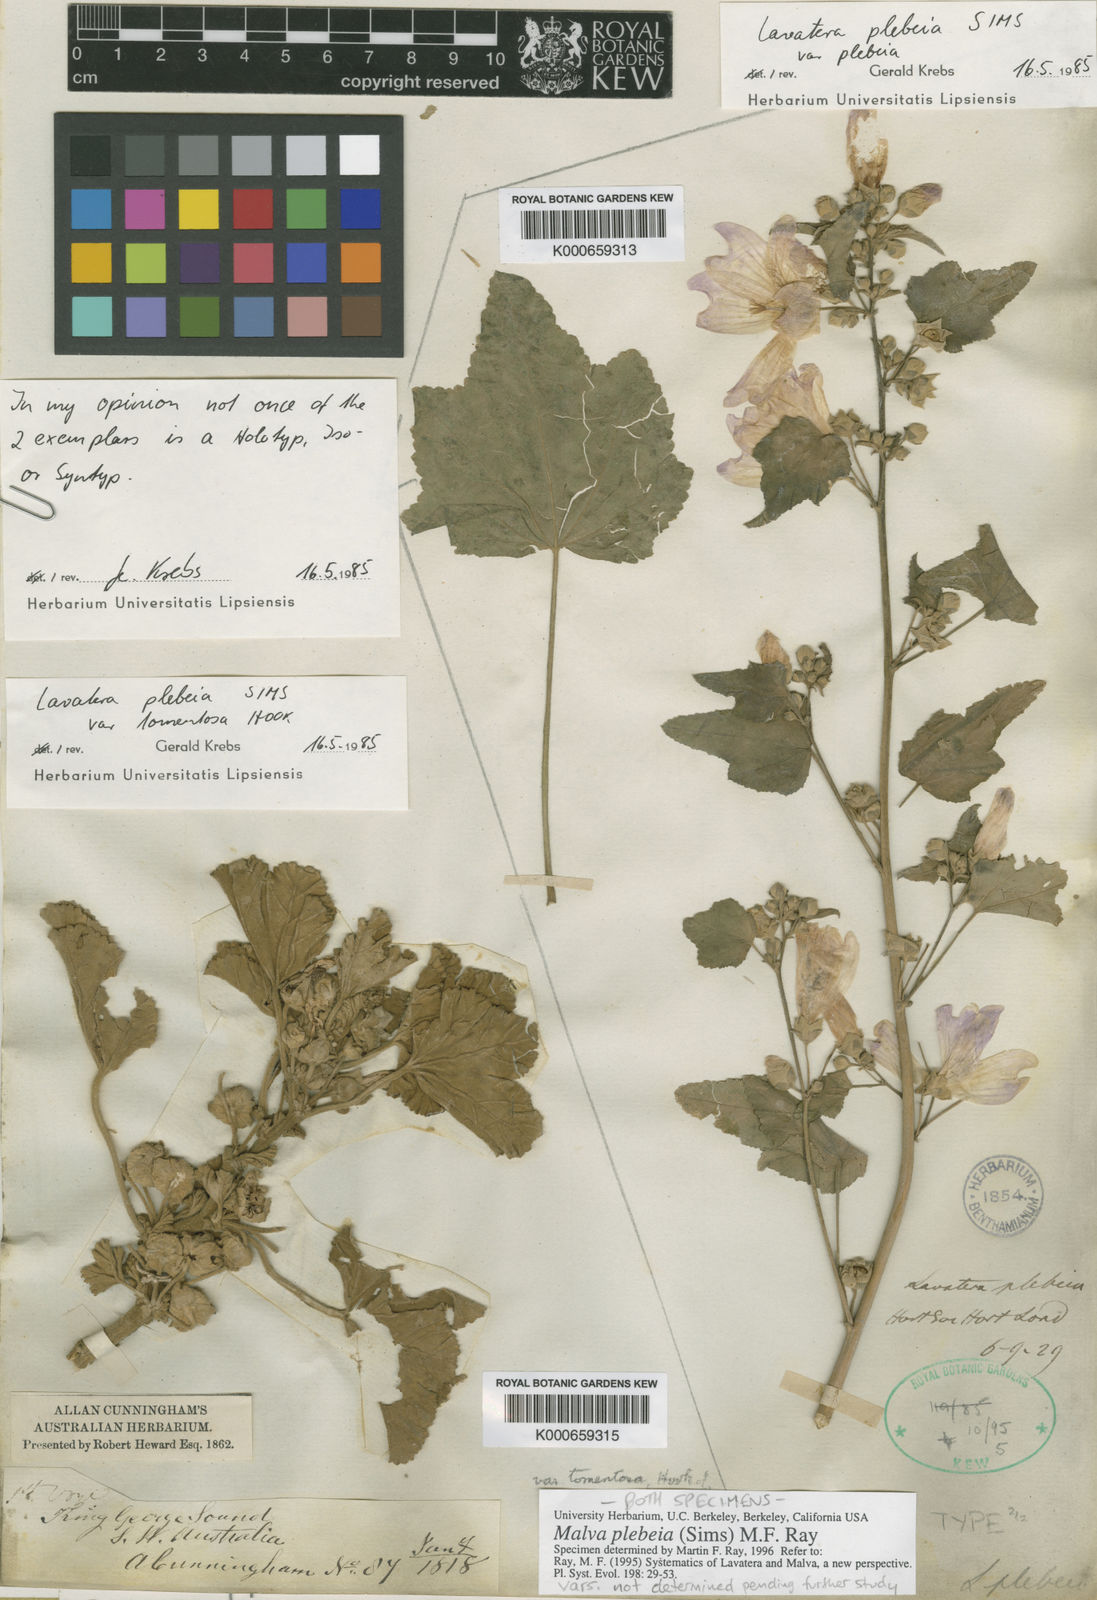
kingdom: Plantae
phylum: Tracheophyta
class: Magnoliopsida
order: Malvales
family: Malvaceae
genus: Malva
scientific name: Malva
